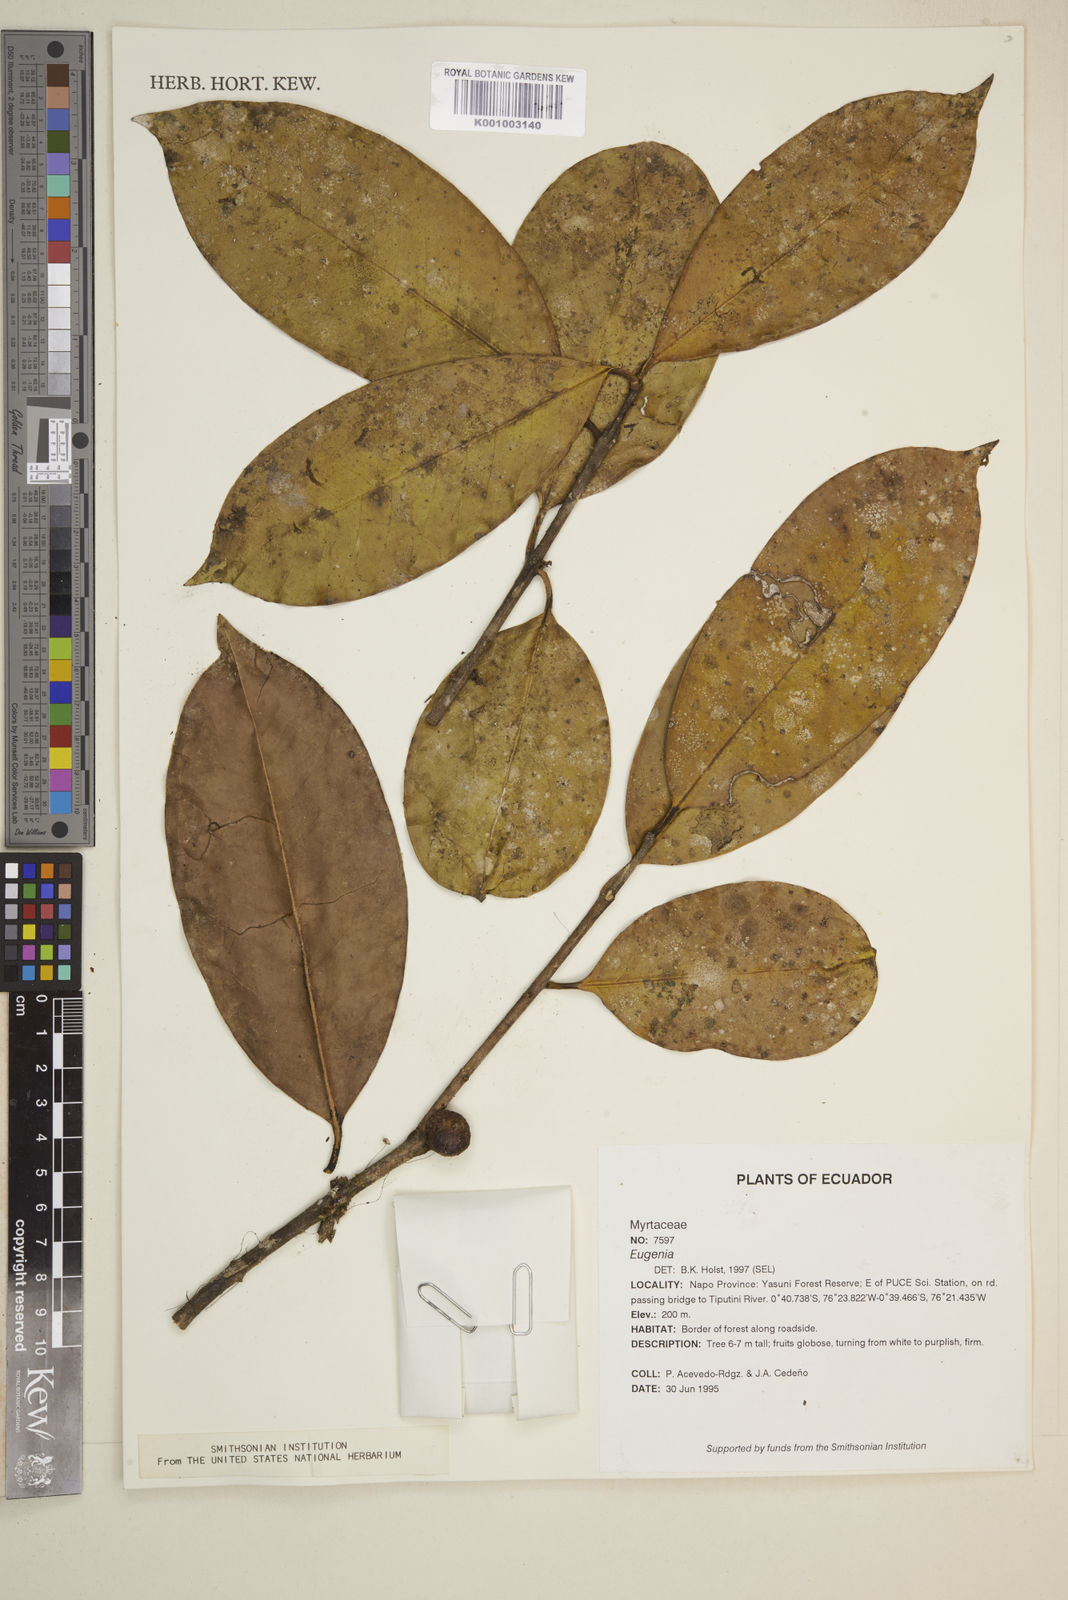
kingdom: Plantae
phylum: Tracheophyta
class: Magnoliopsida
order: Myrtales
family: Myrtaceae
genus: Eugenia
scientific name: Eugenia
